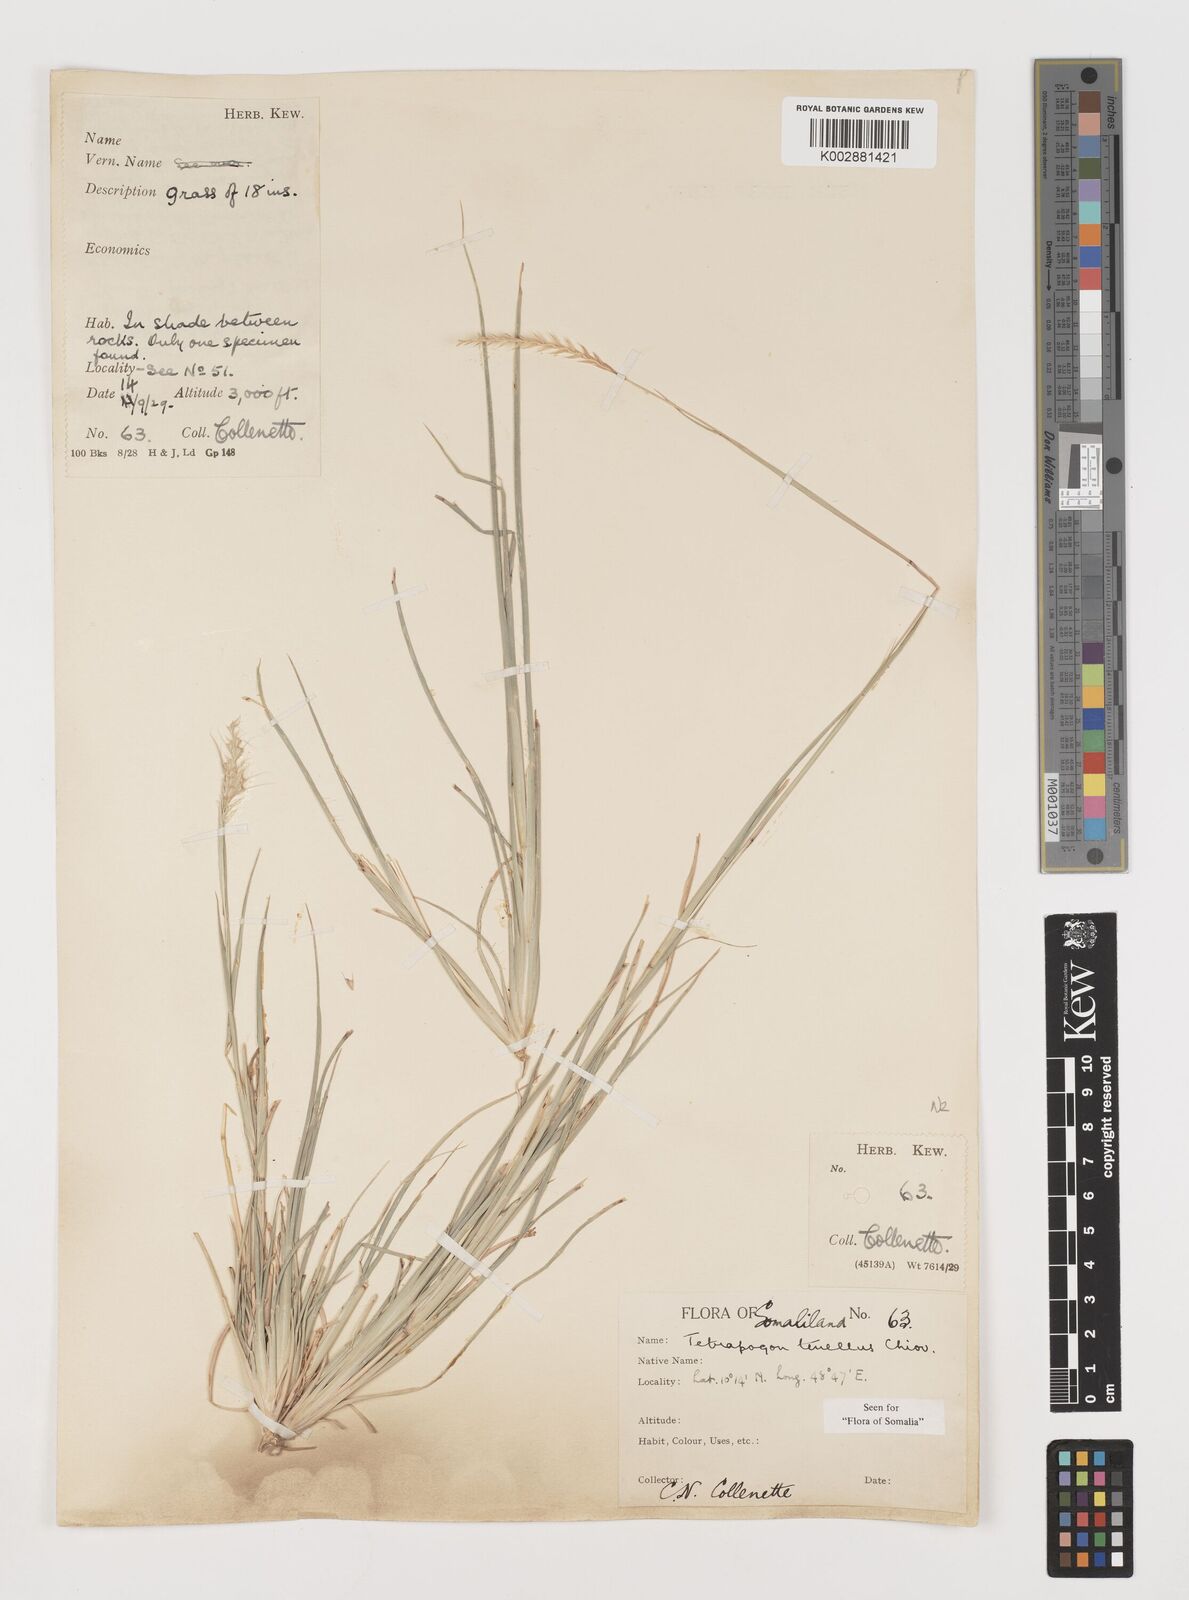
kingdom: Plantae
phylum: Tracheophyta
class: Liliopsida
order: Poales
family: Poaceae
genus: Tetrapogon
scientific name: Tetrapogon tenellus
